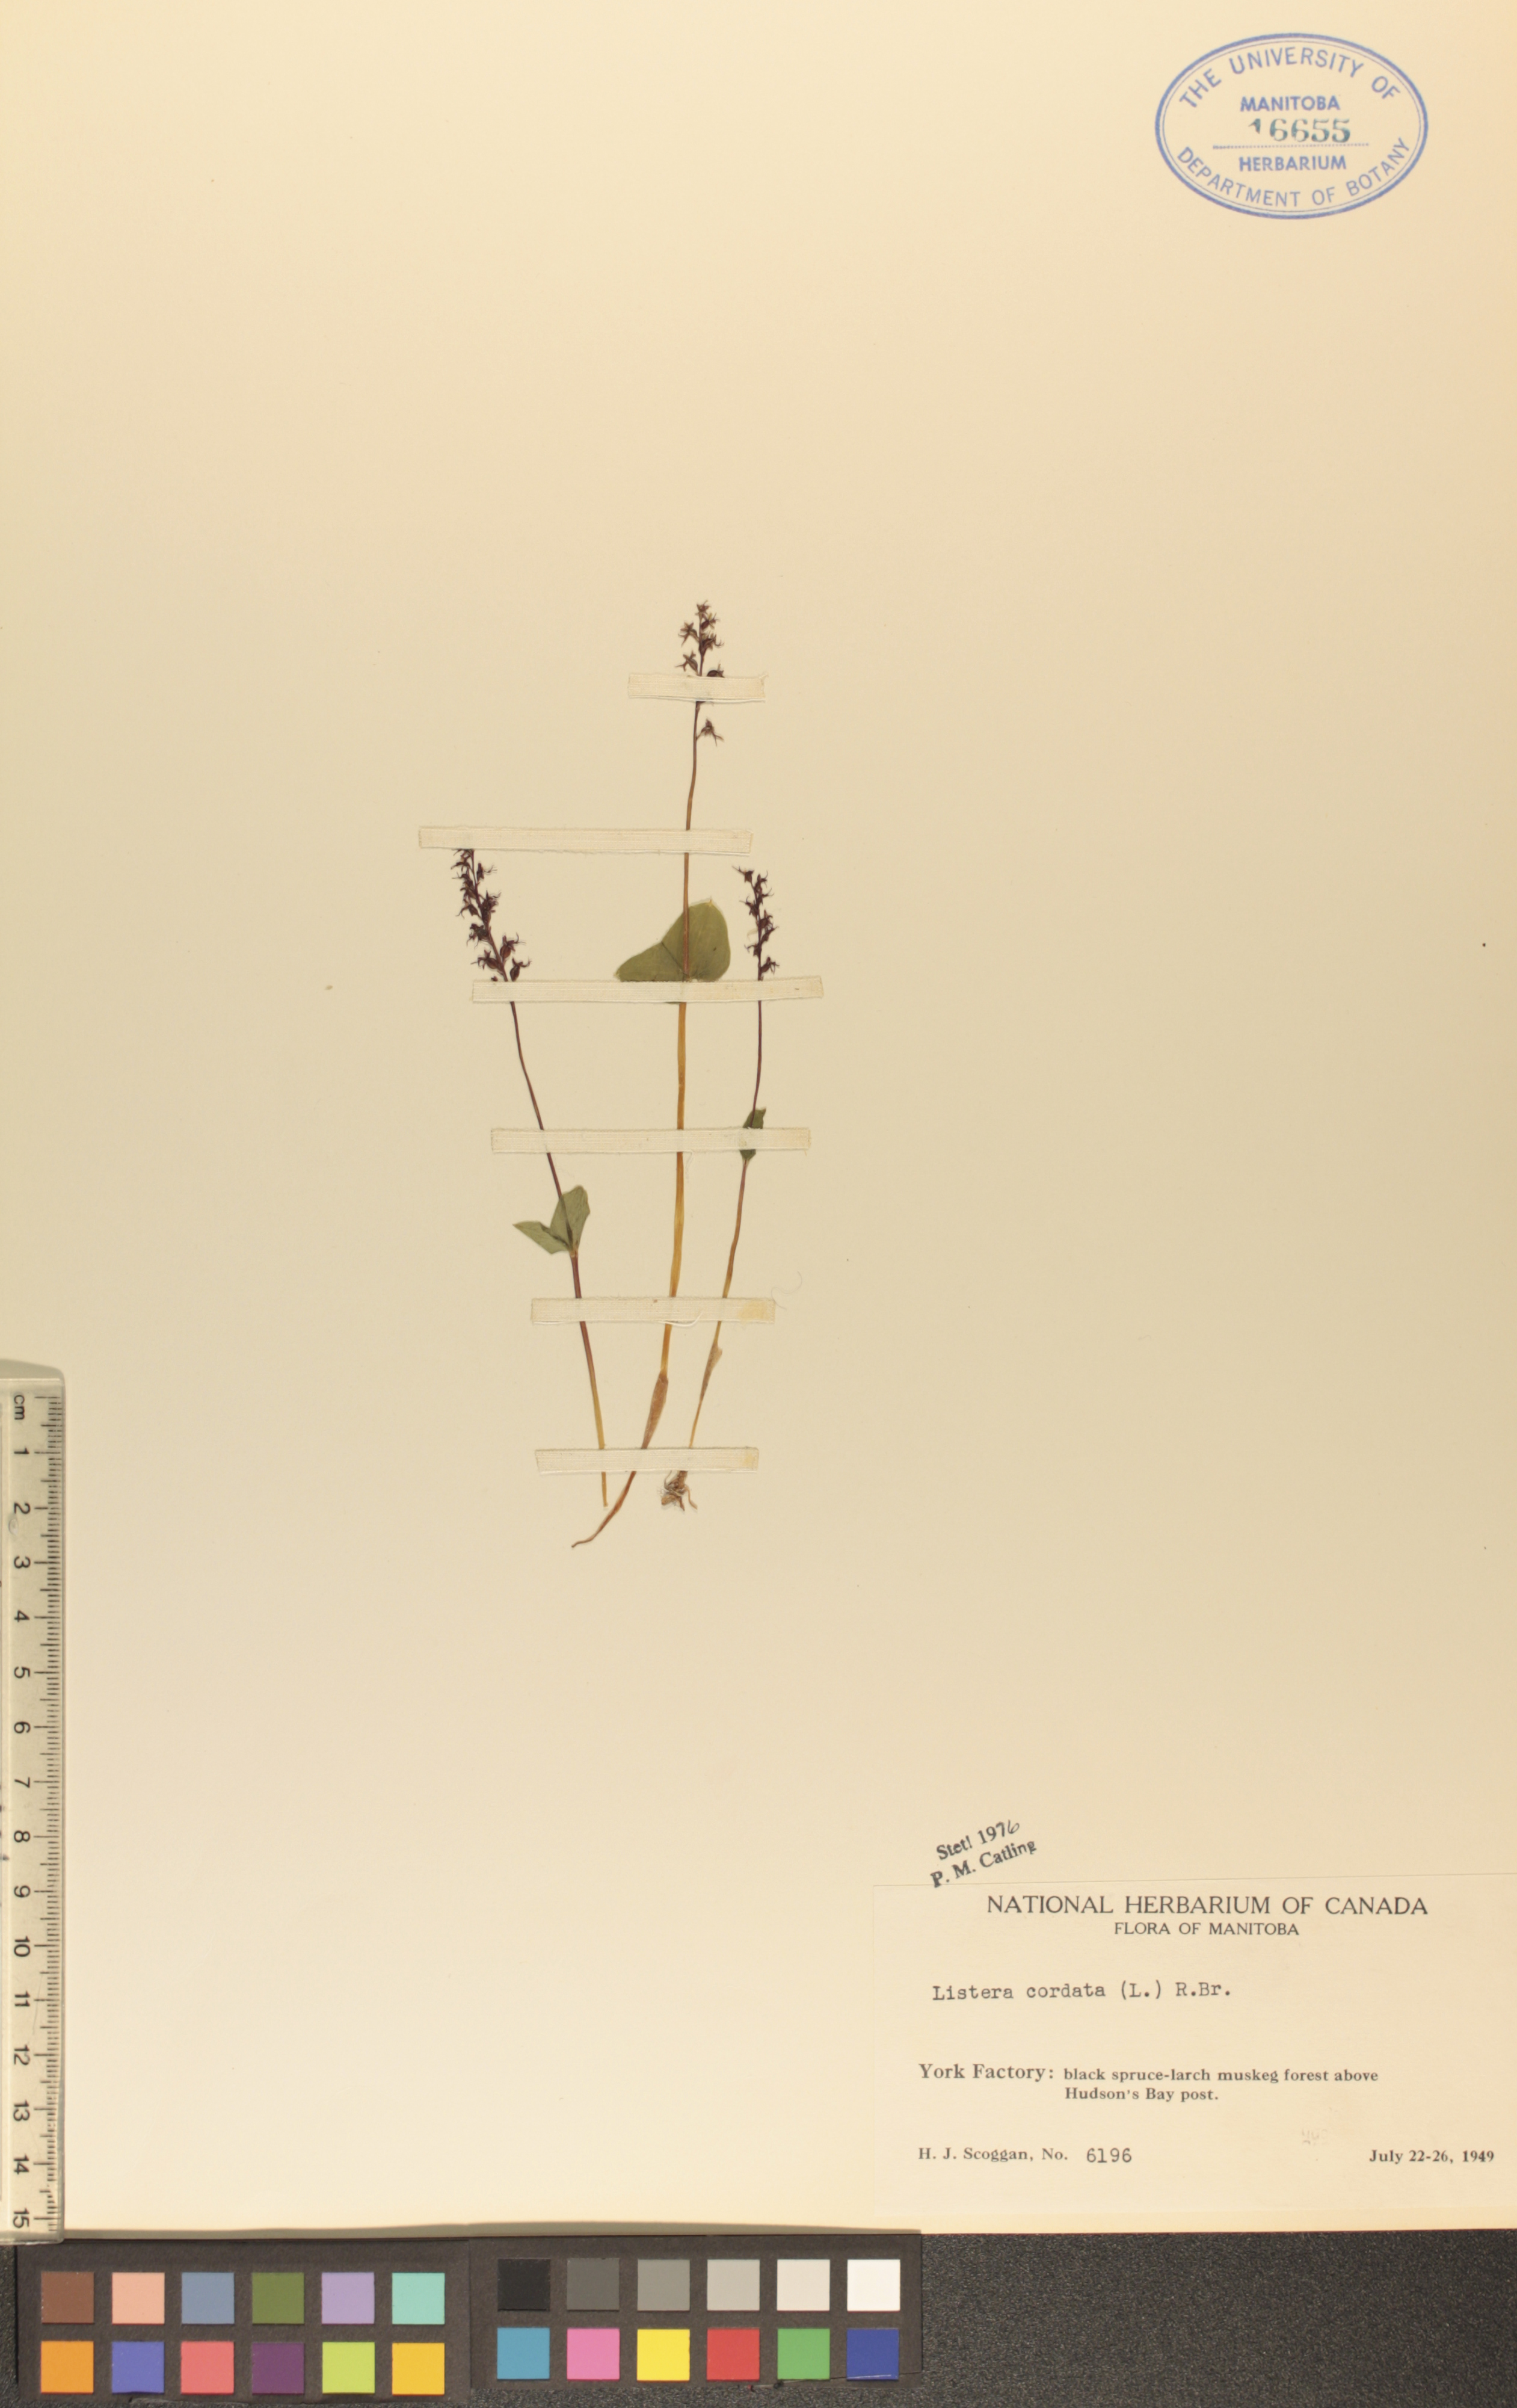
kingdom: Plantae
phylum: Tracheophyta
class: Liliopsida
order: Asparagales
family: Orchidaceae
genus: Neottia
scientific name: Neottia cordata
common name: Lesser twayblade
